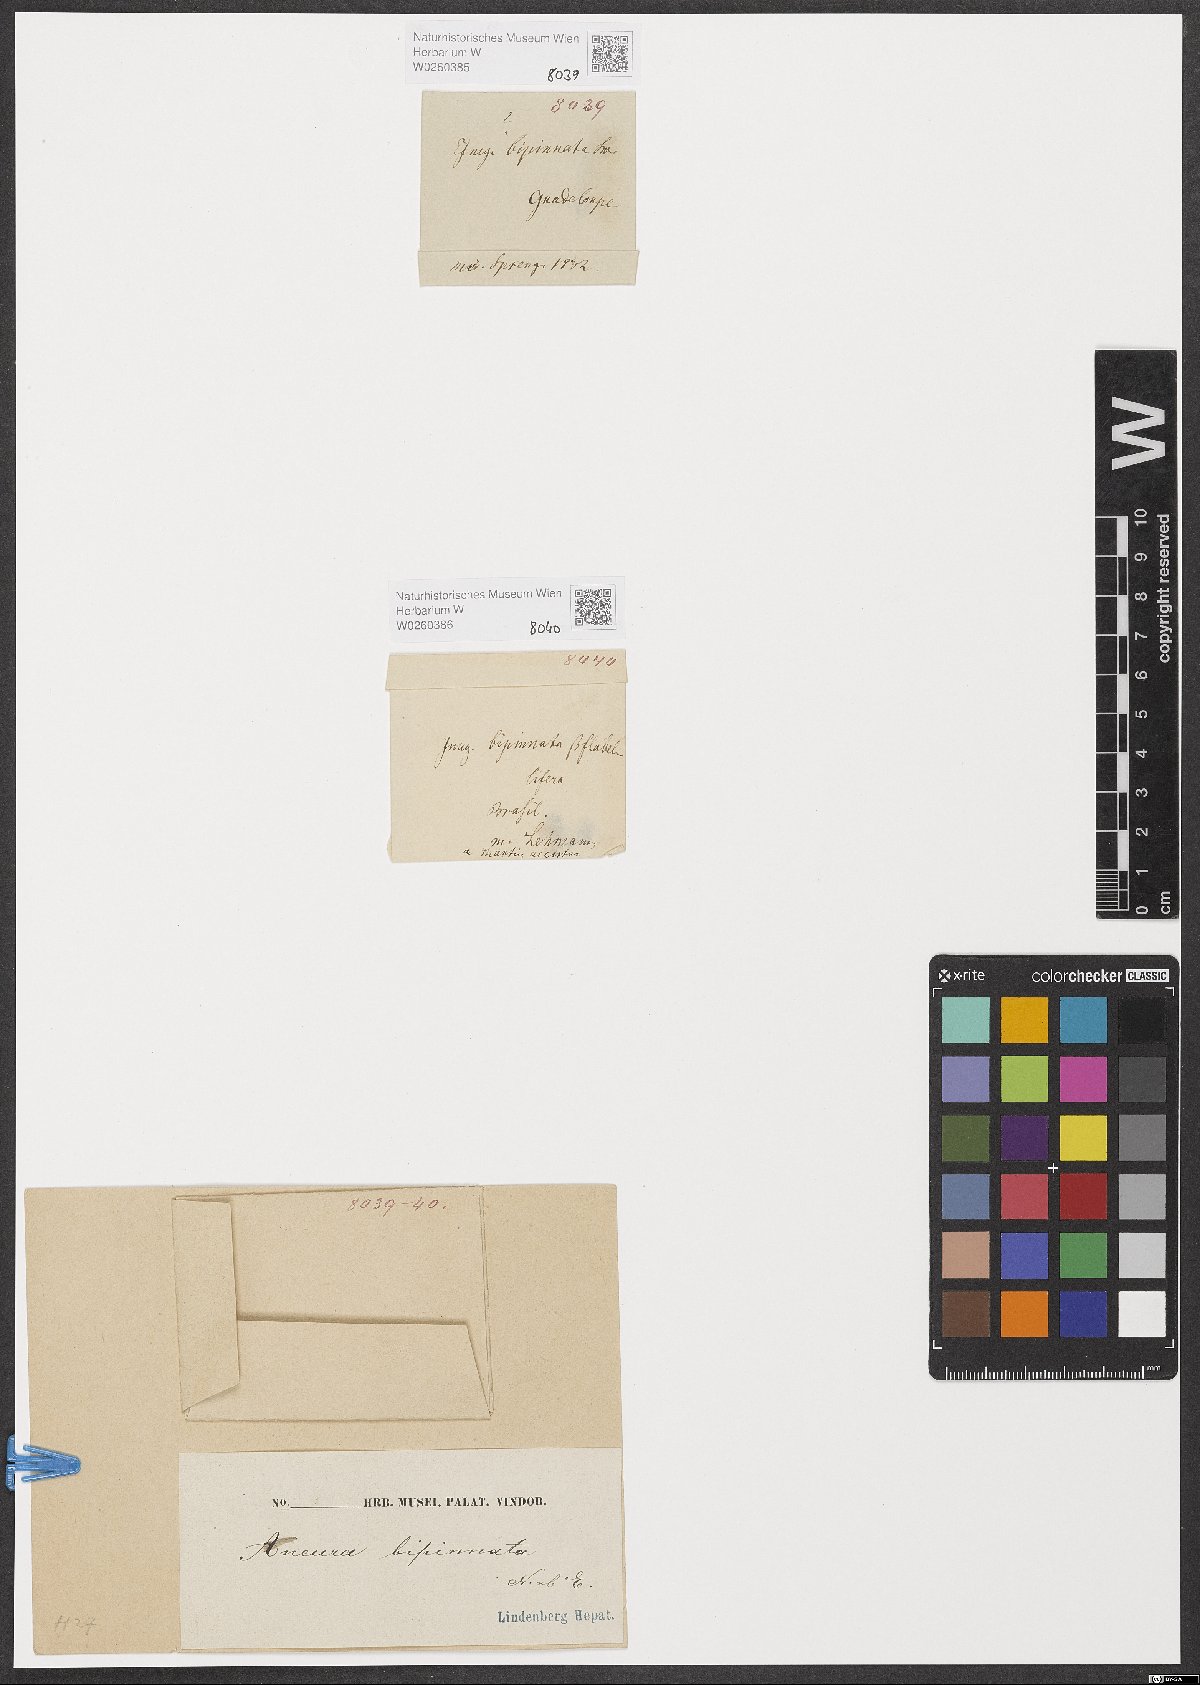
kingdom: Plantae
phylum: Marchantiophyta
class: Jungermanniopsida
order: Metzgeriales
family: Aneuraceae
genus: Lobatiriccardia
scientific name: Lobatiriccardia alterniloba
